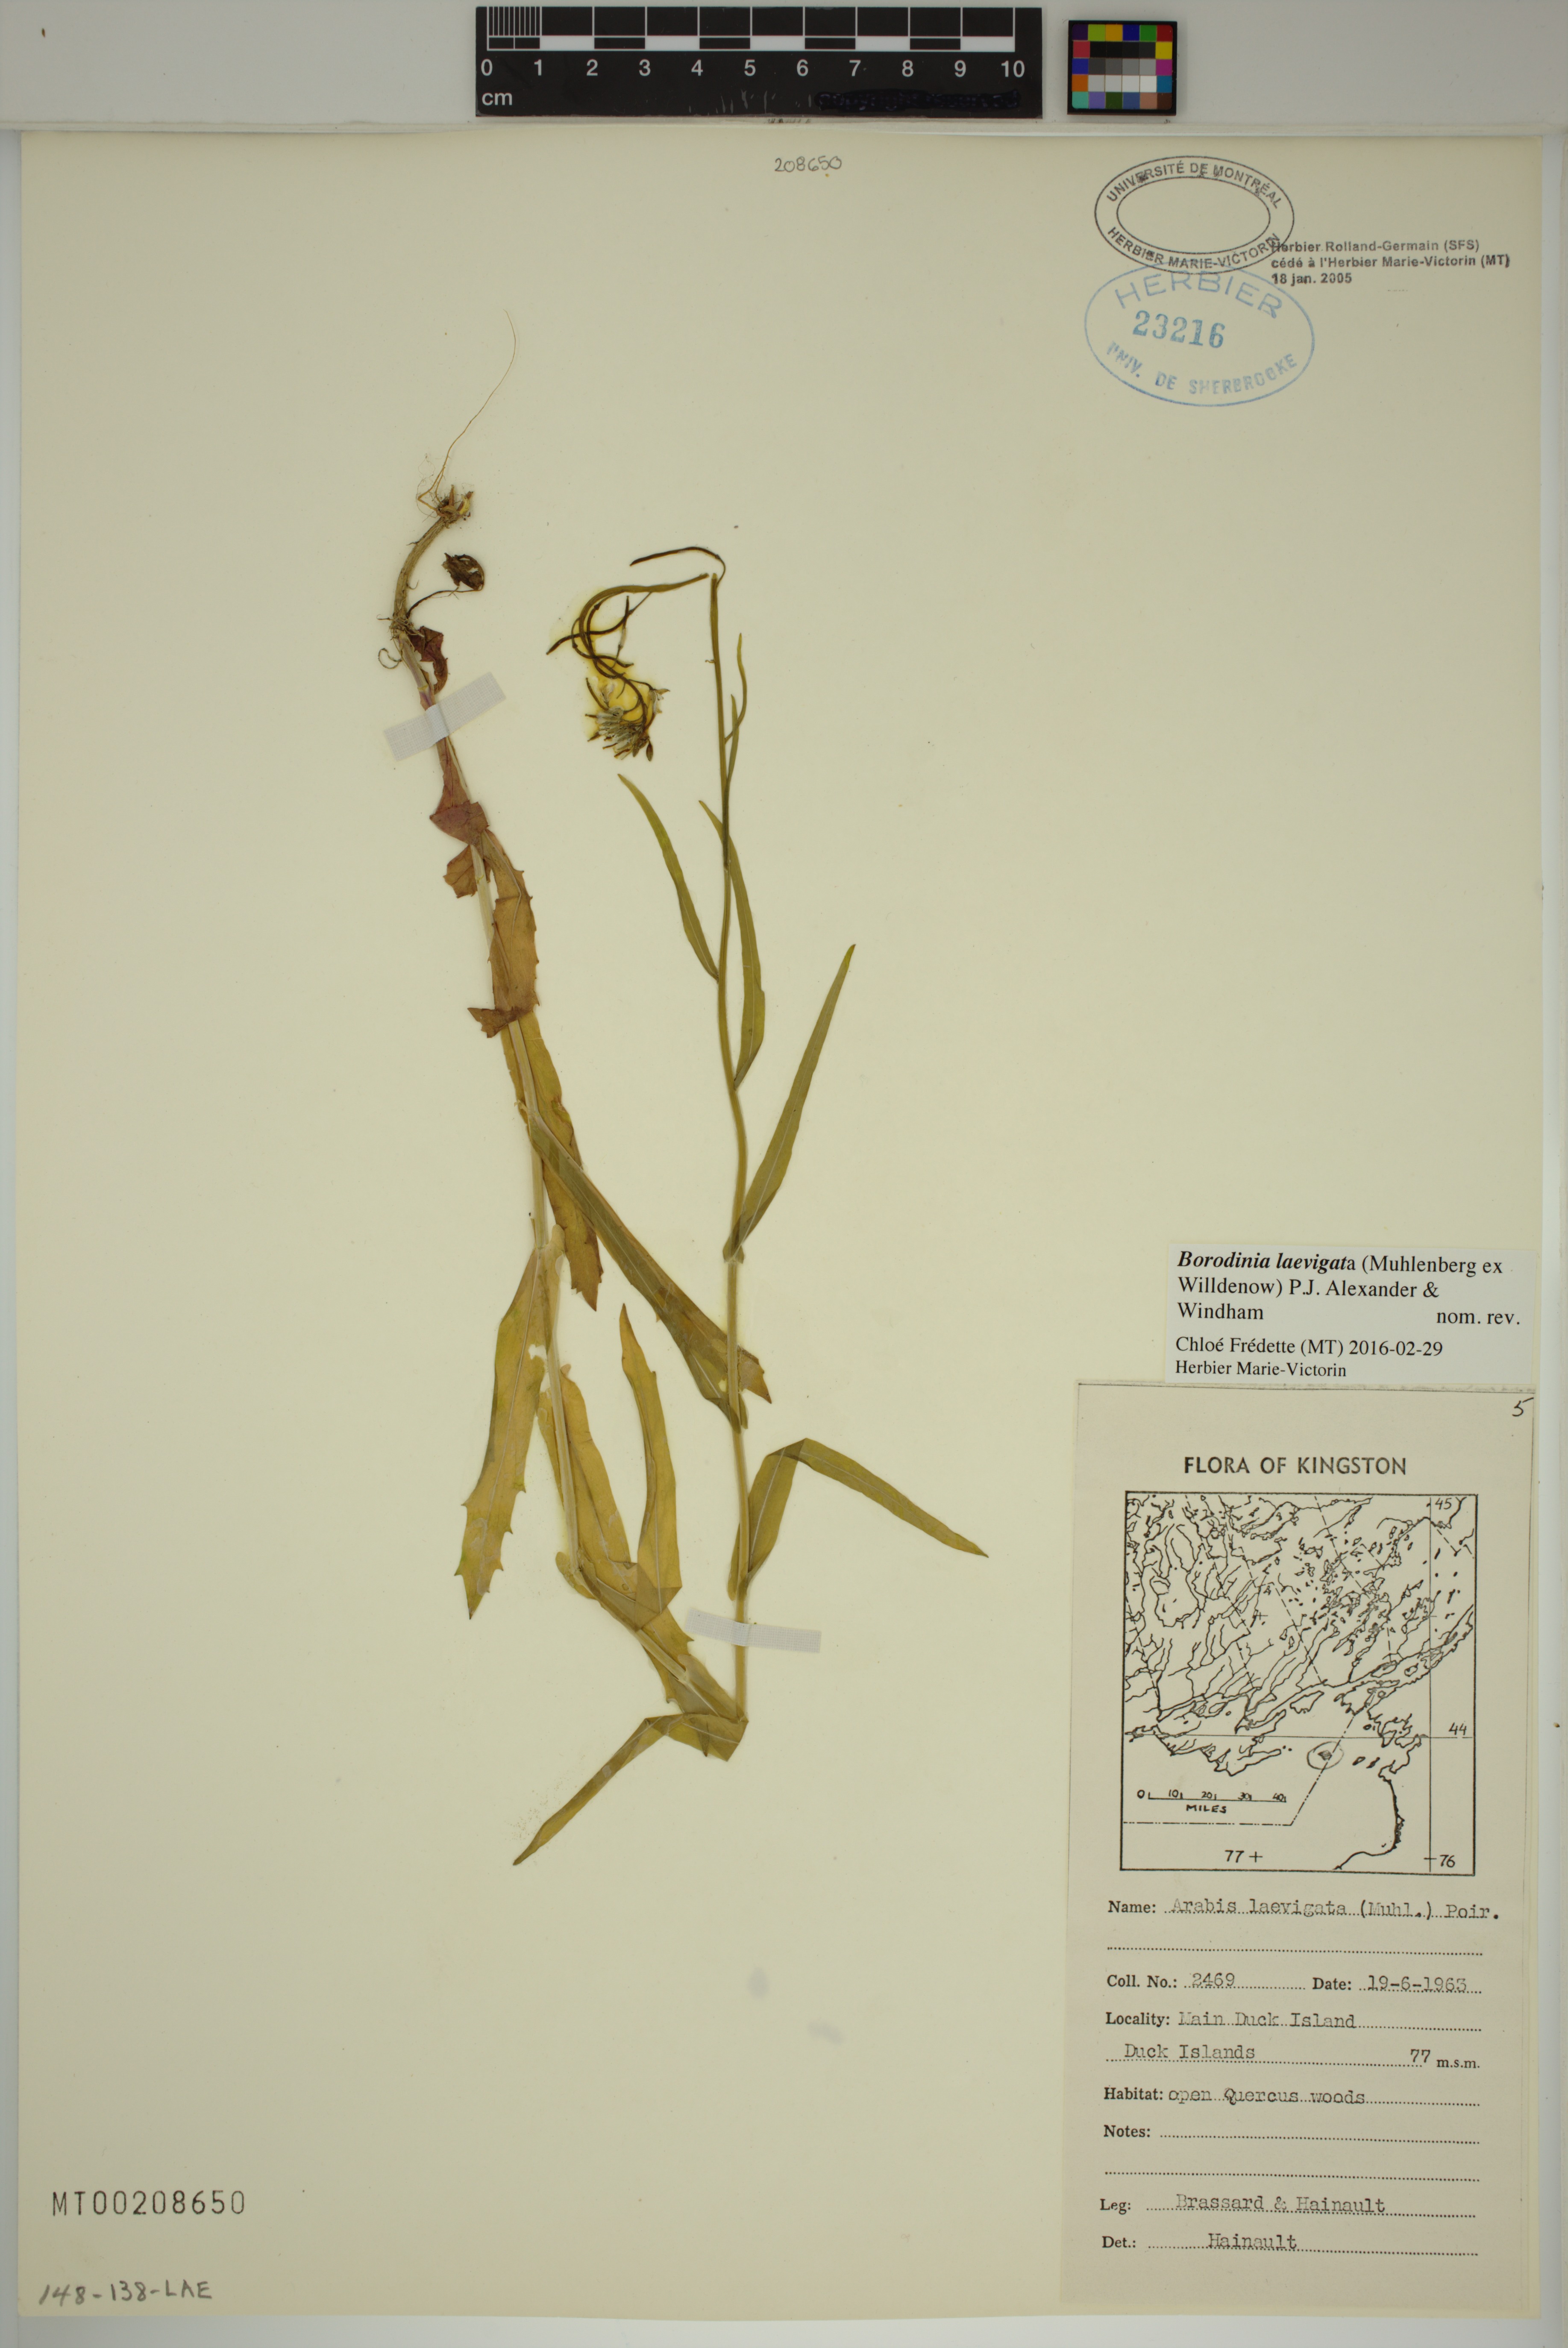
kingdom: Plantae
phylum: Tracheophyta
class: Magnoliopsida
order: Brassicales
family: Brassicaceae
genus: Borodinia
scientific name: Borodinia laevigata
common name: Smooth rockcress
